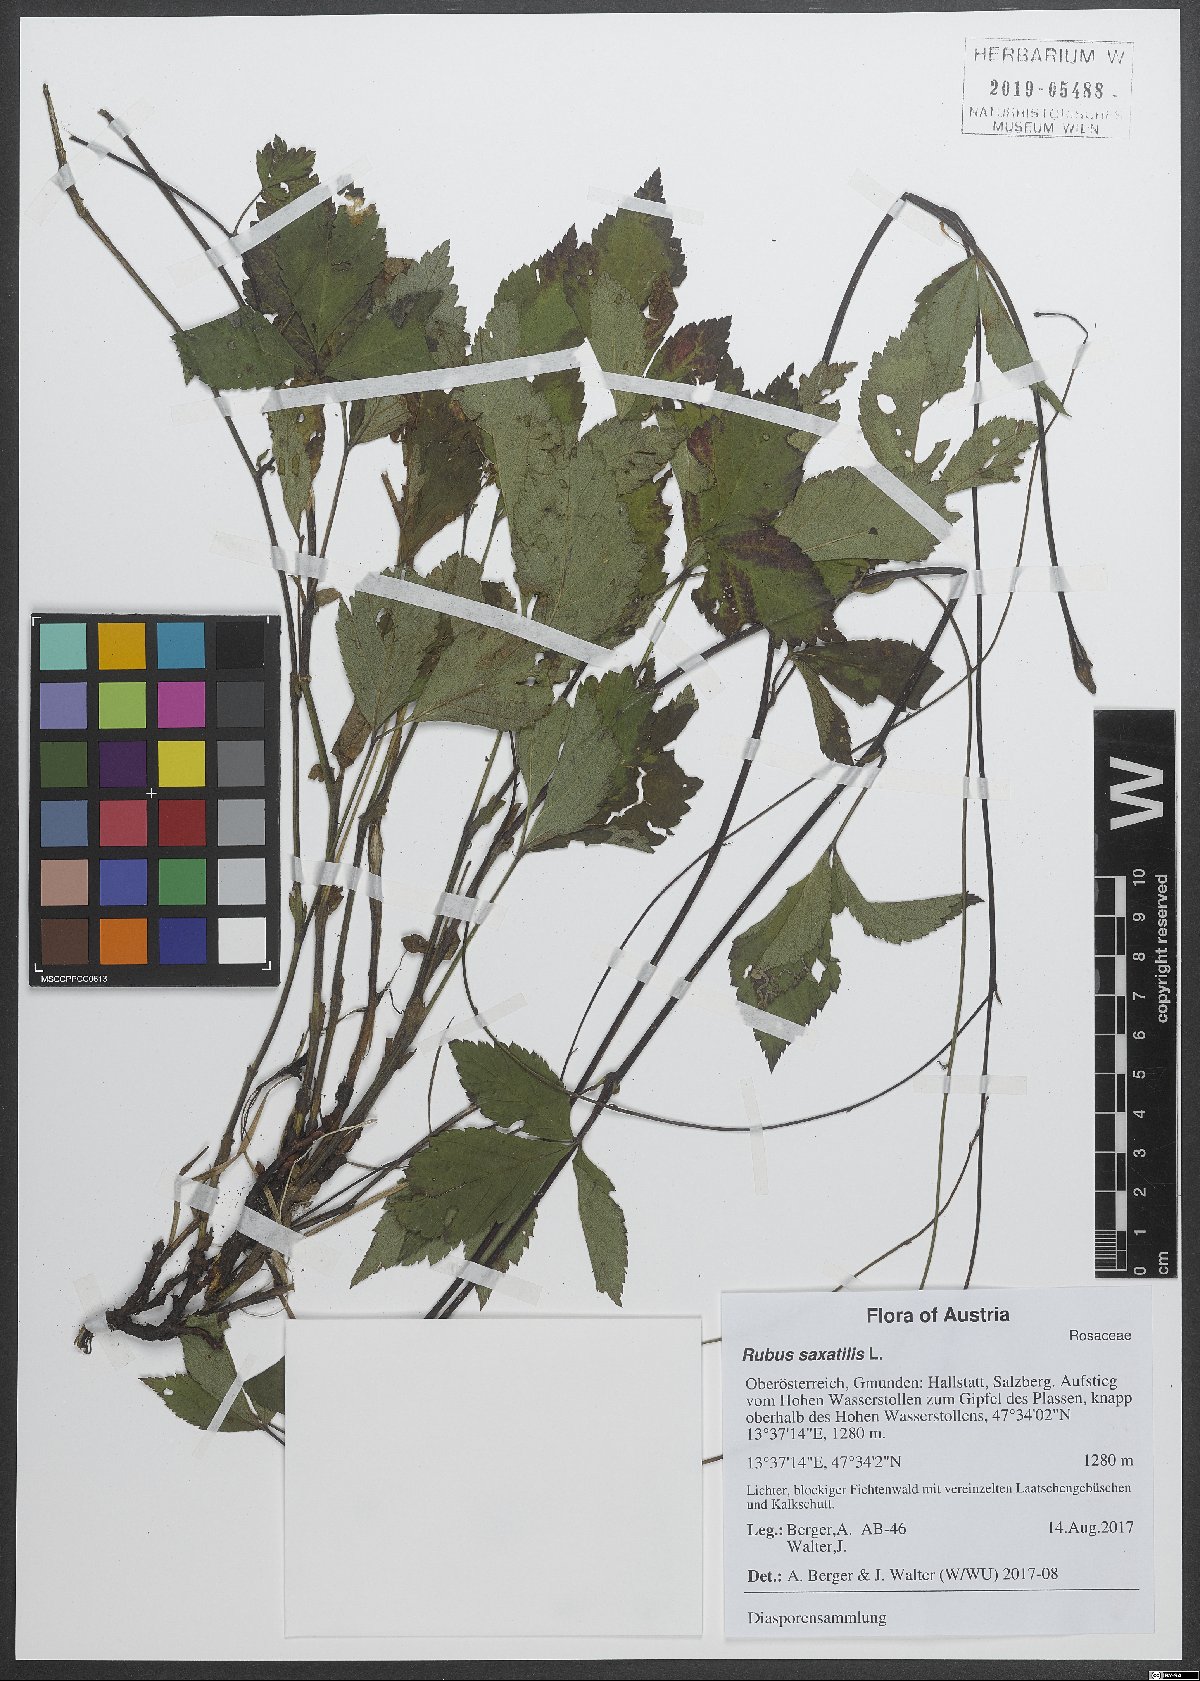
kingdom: Plantae
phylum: Tracheophyta
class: Magnoliopsida
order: Rosales
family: Rosaceae
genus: Rubus
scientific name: Rubus saxatilis
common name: Stone bramble
